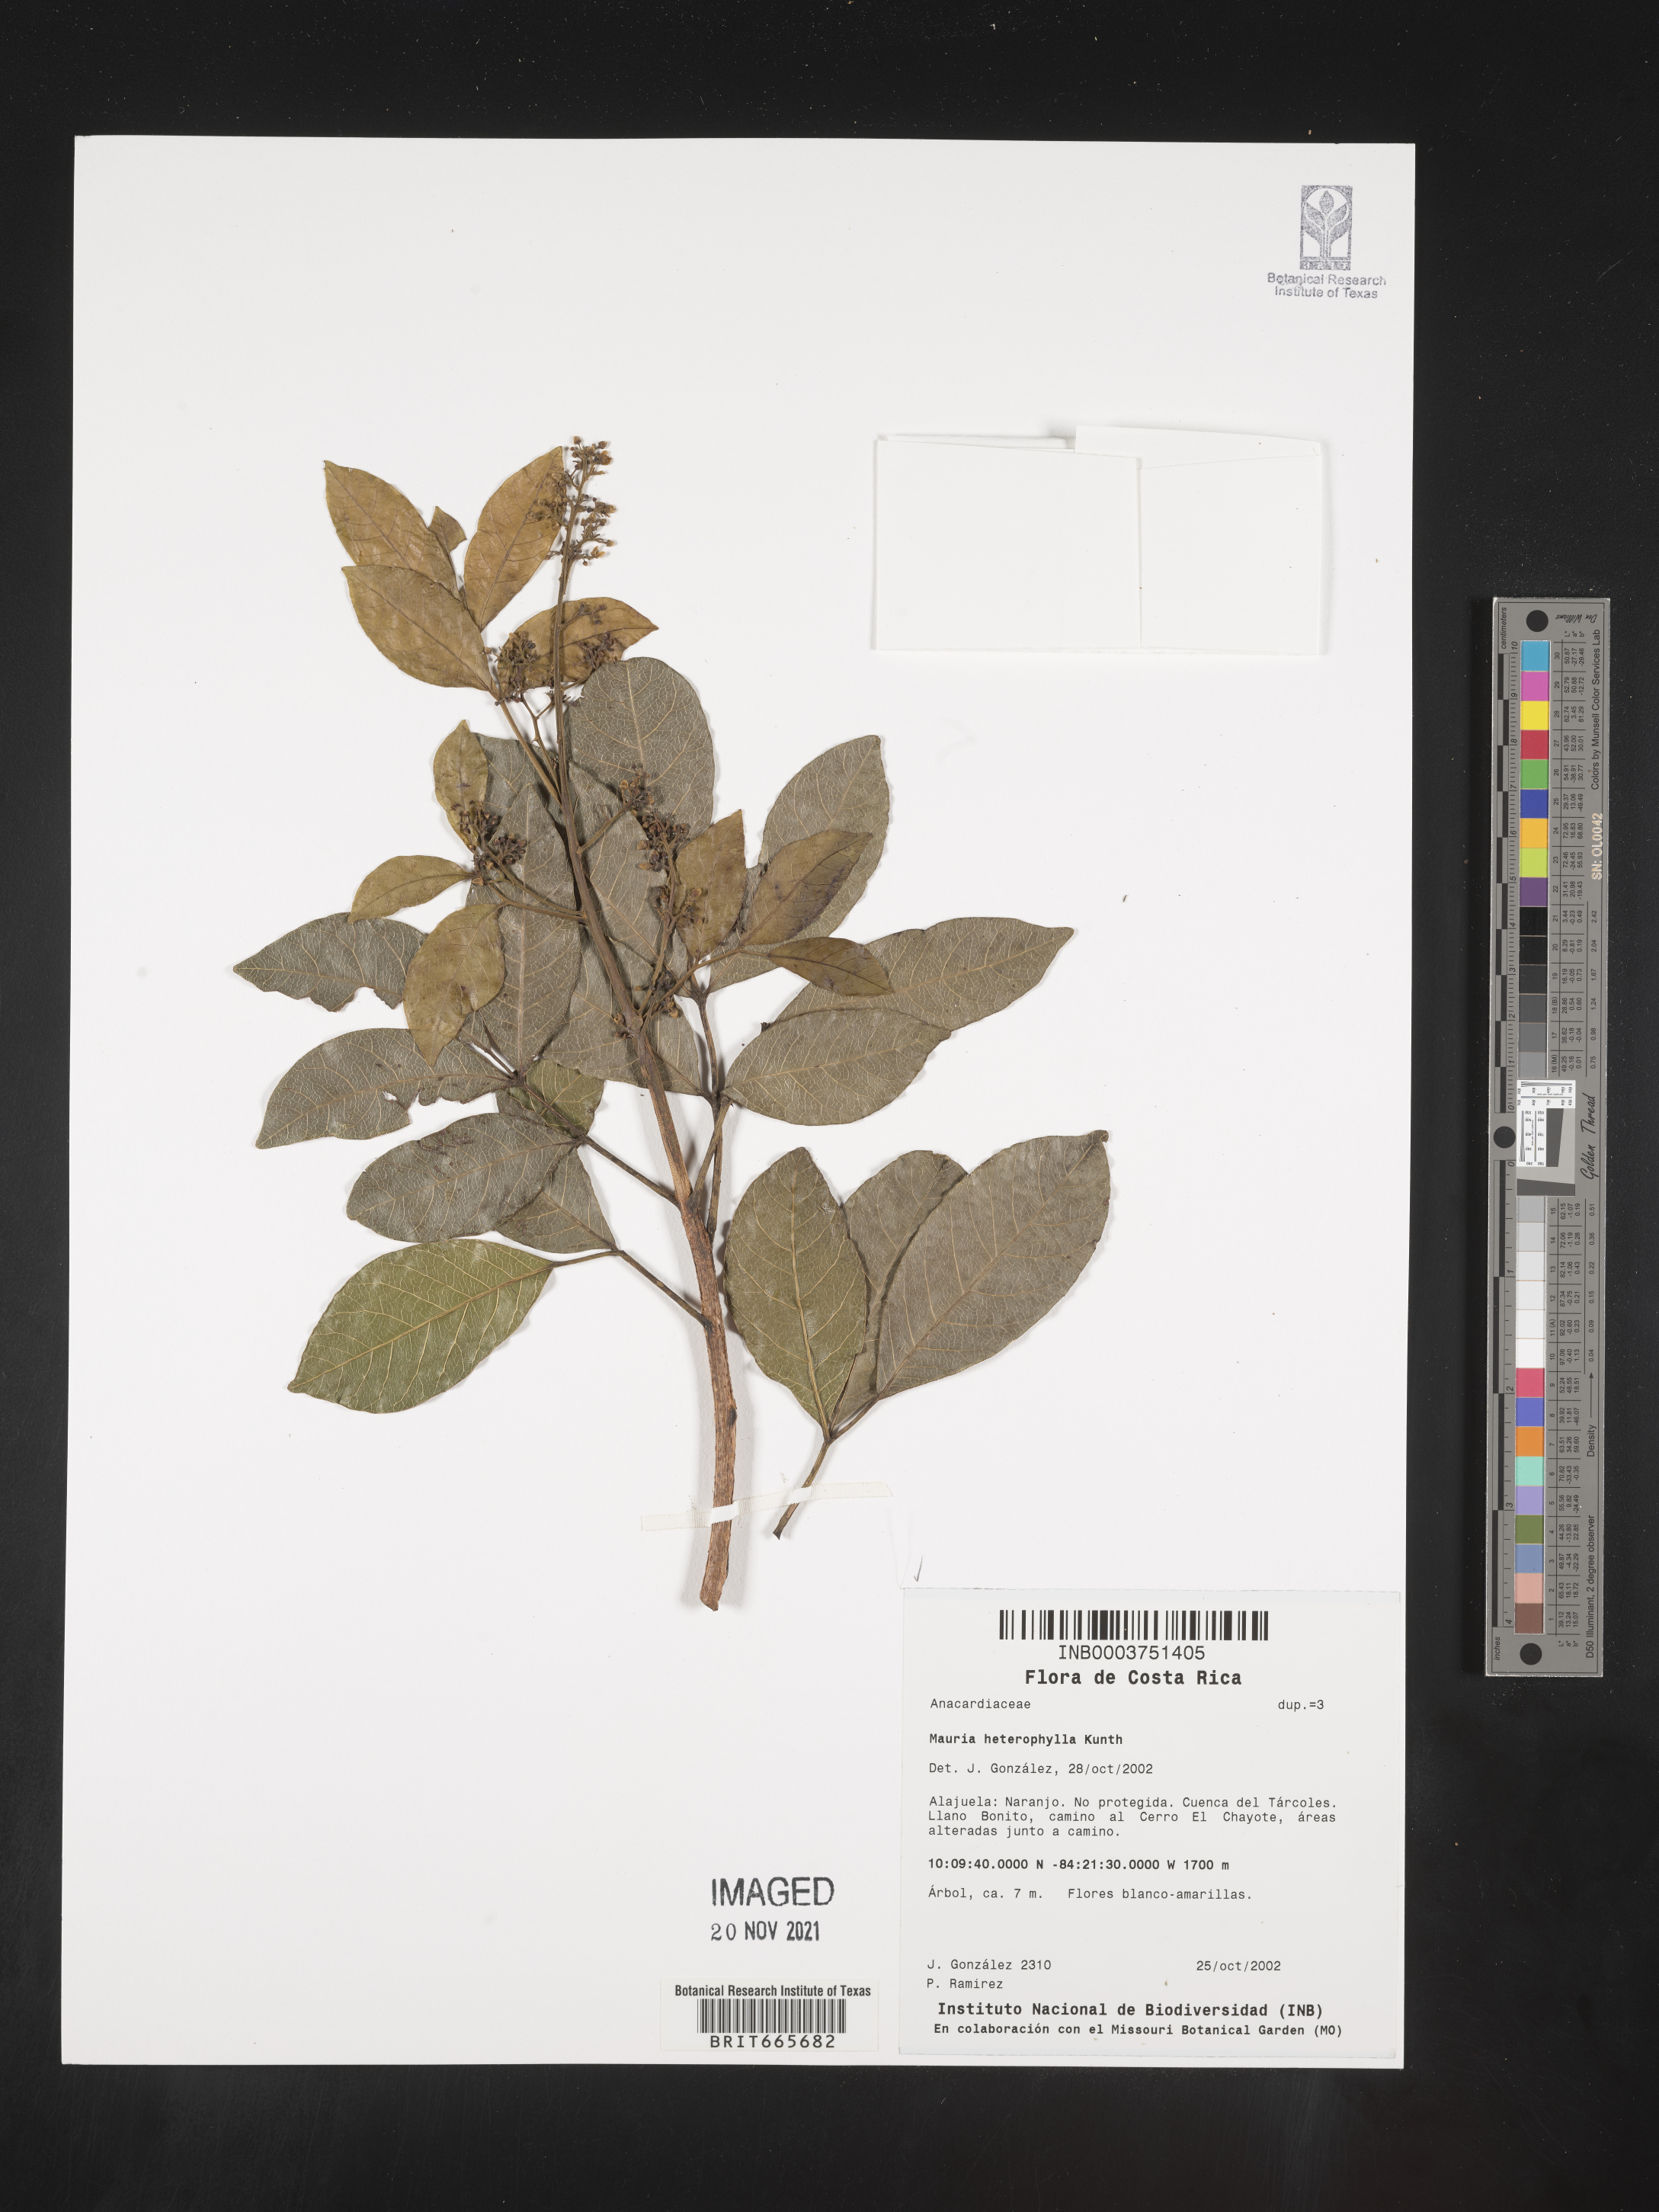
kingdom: Plantae
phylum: Tracheophyta
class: Magnoliopsida
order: Sapindales
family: Anacardiaceae
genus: Mauria
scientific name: Mauria
